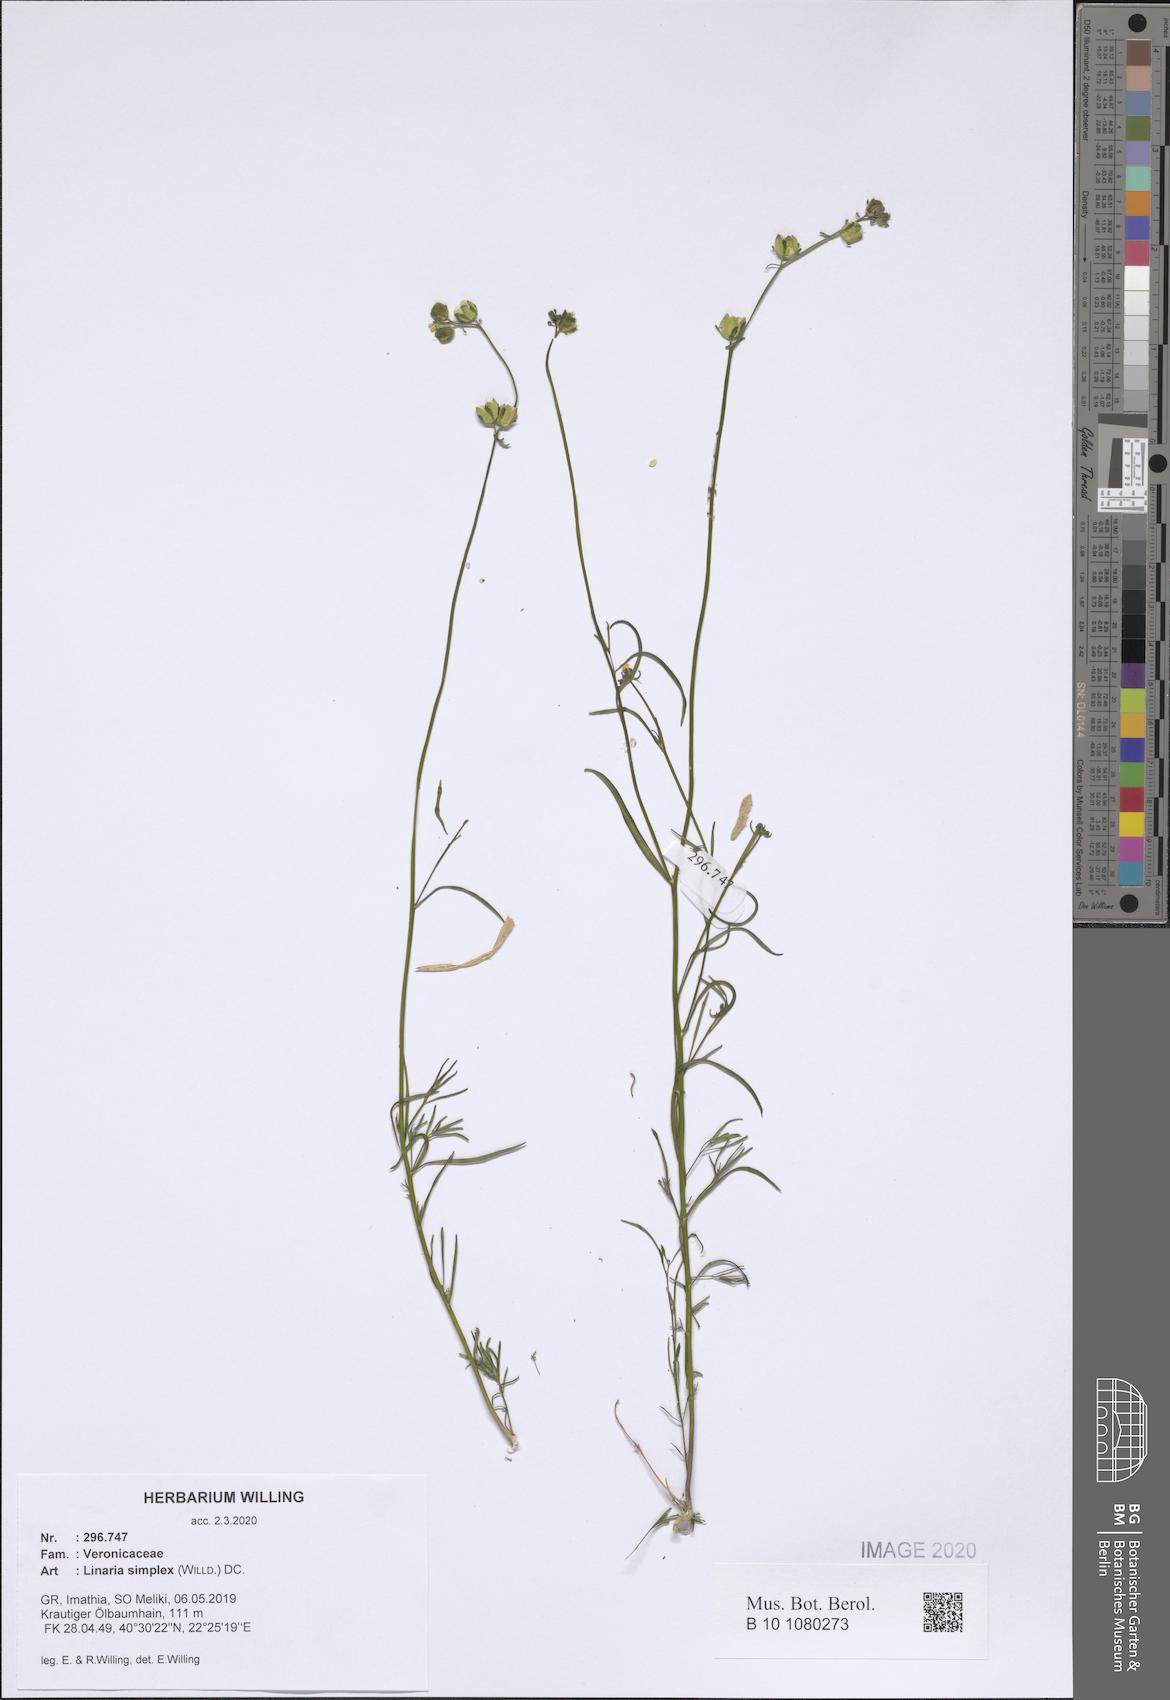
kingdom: Plantae
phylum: Tracheophyta
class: Magnoliopsida
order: Lamiales
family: Plantaginaceae
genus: Linaria
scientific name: Linaria simplex
